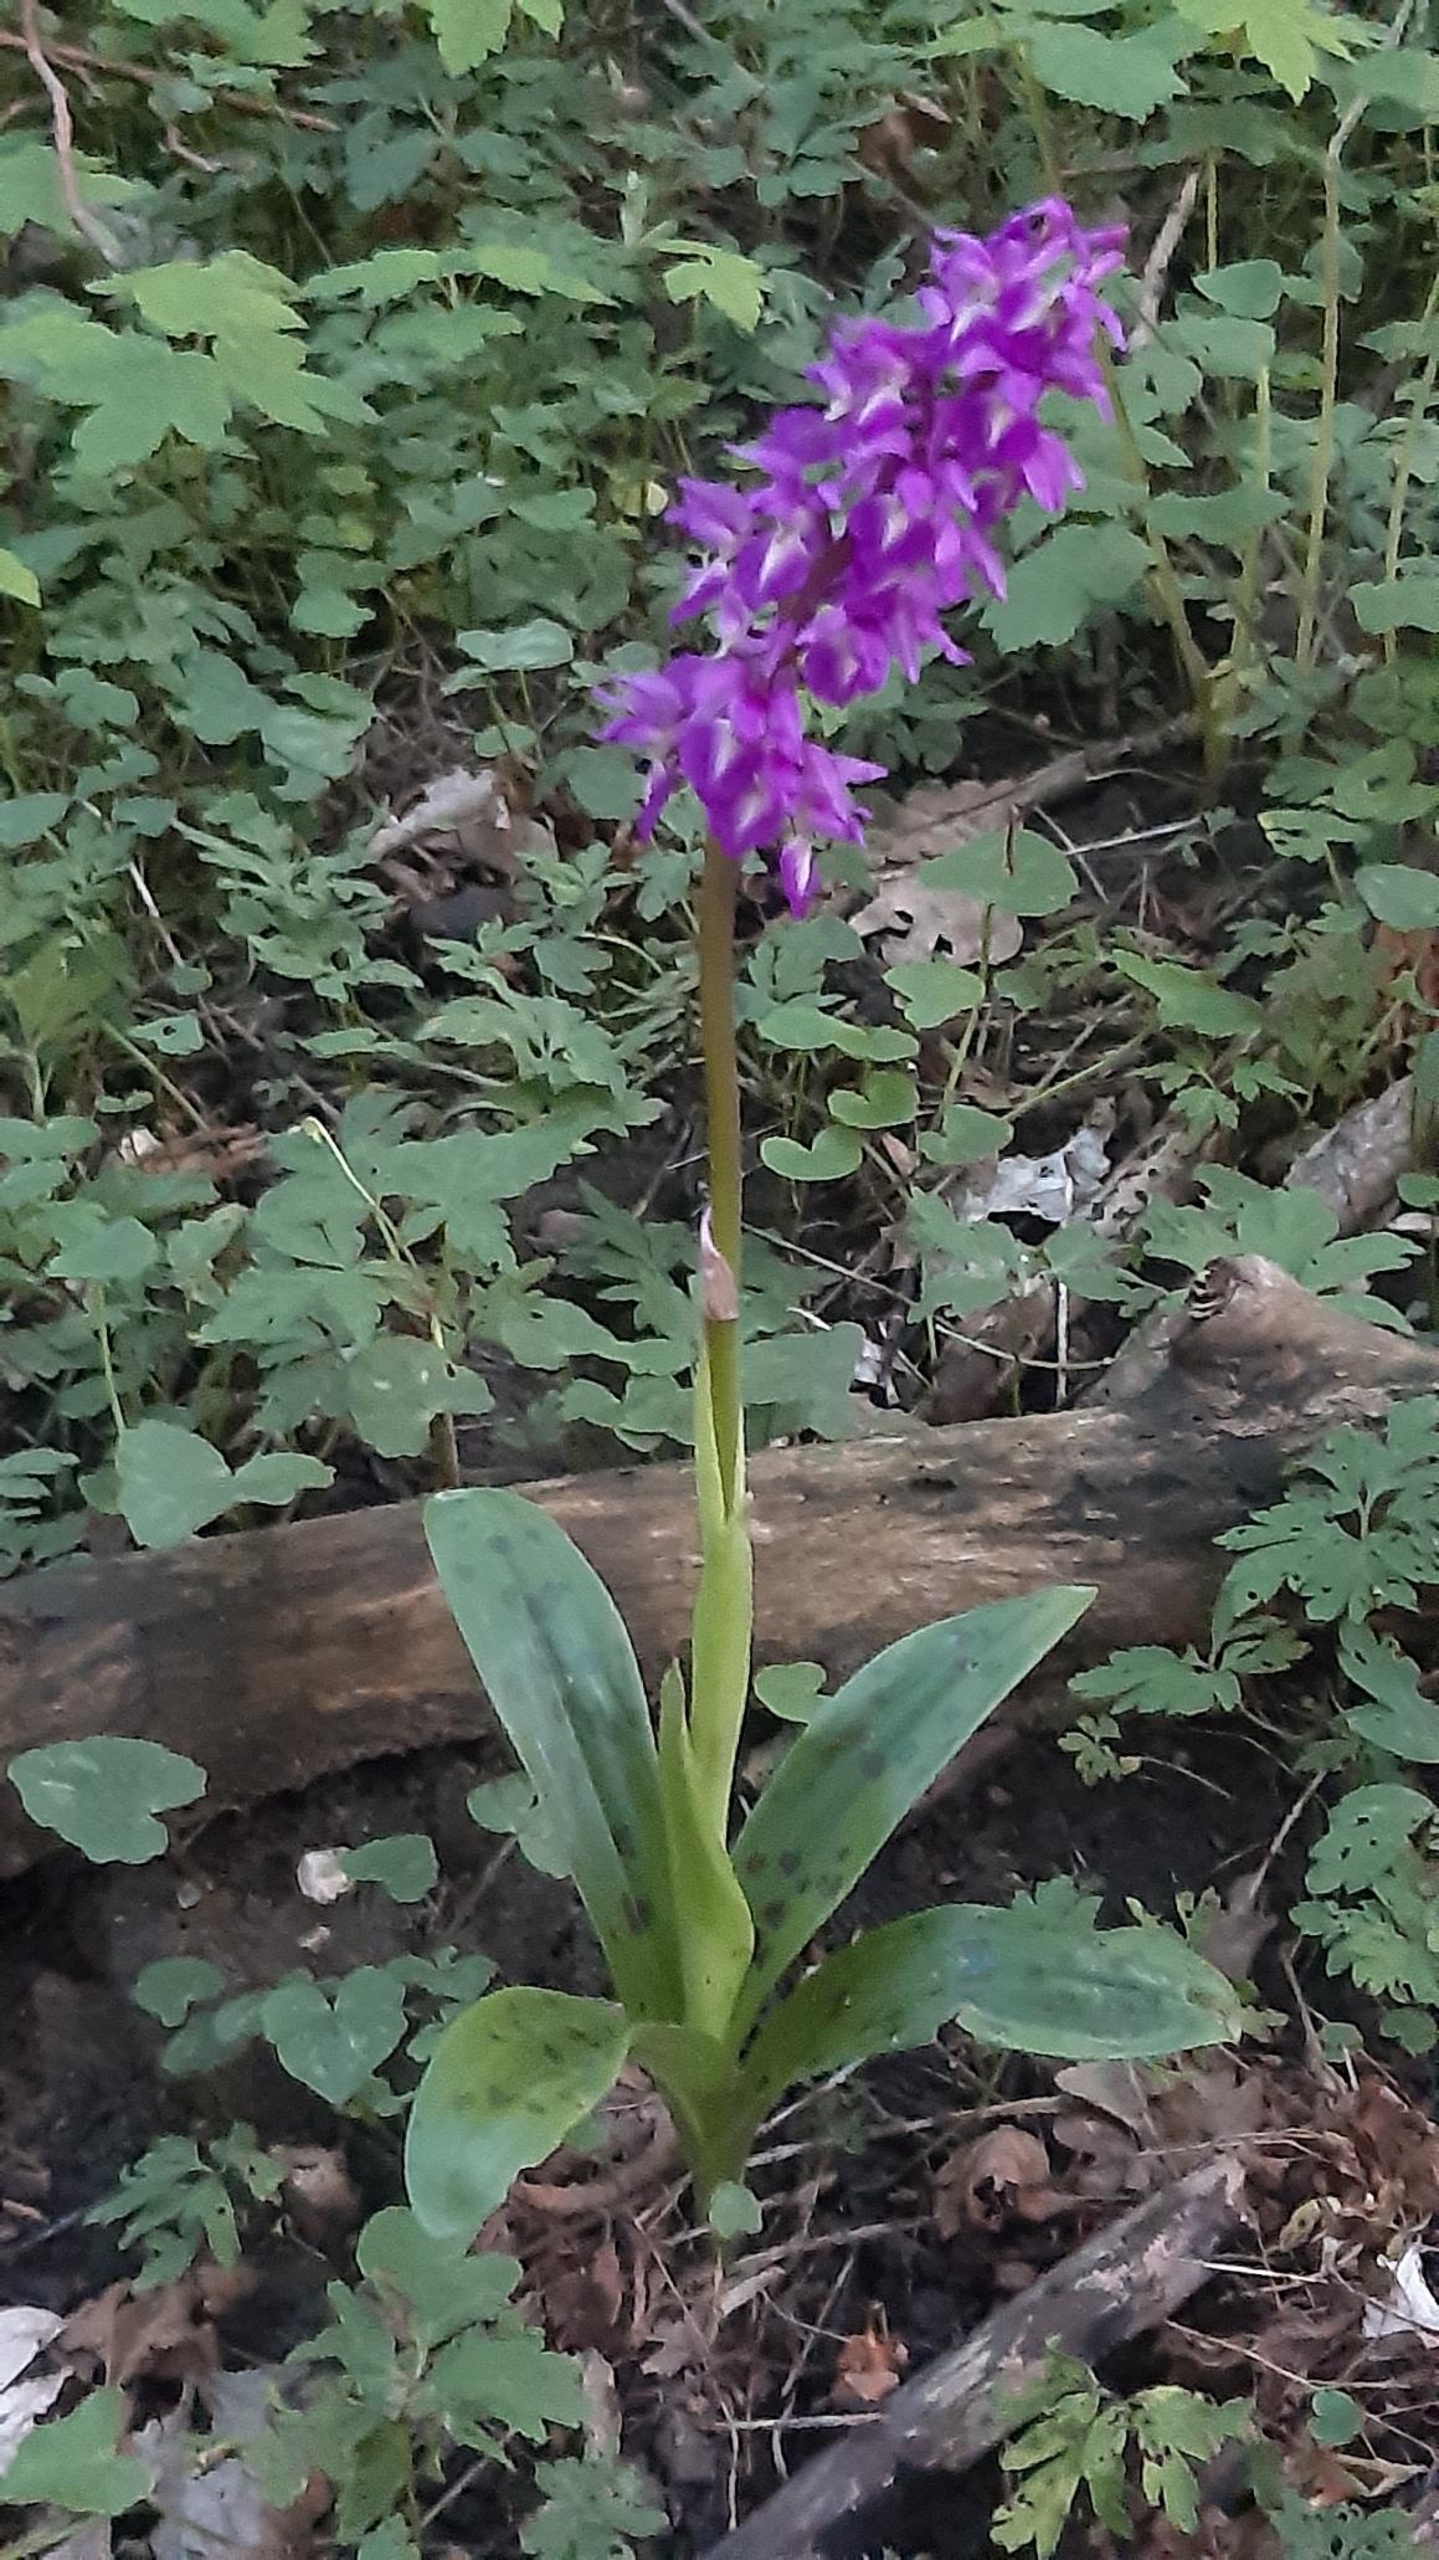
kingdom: Plantae
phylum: Tracheophyta
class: Liliopsida
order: Asparagales
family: Orchidaceae
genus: Orchis
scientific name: Orchis mascula
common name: Tyndakset gøgeurt
